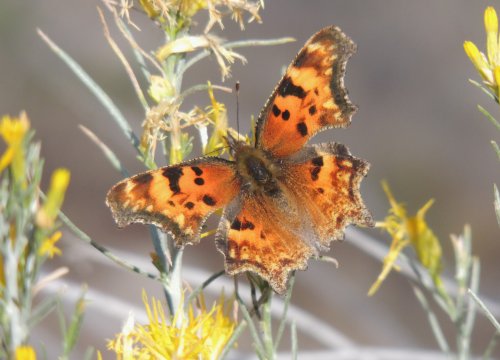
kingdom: Animalia
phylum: Arthropoda
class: Insecta
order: Lepidoptera
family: Nymphalidae
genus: Polygonia
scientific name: Polygonia gracilis
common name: Hoary Comma
